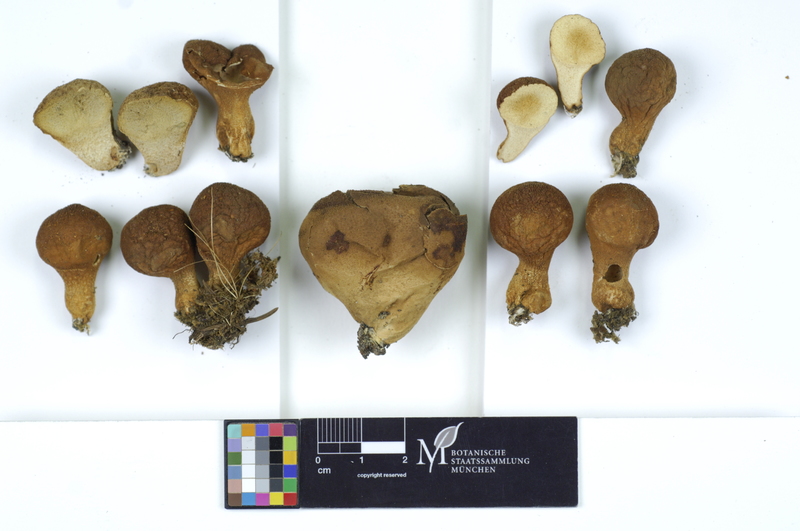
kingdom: Fungi
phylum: Basidiomycota
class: Agaricomycetes
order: Agaricales
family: Lycoperdaceae
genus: Lycoperdon
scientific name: Lycoperdon molle
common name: Soft puffball
